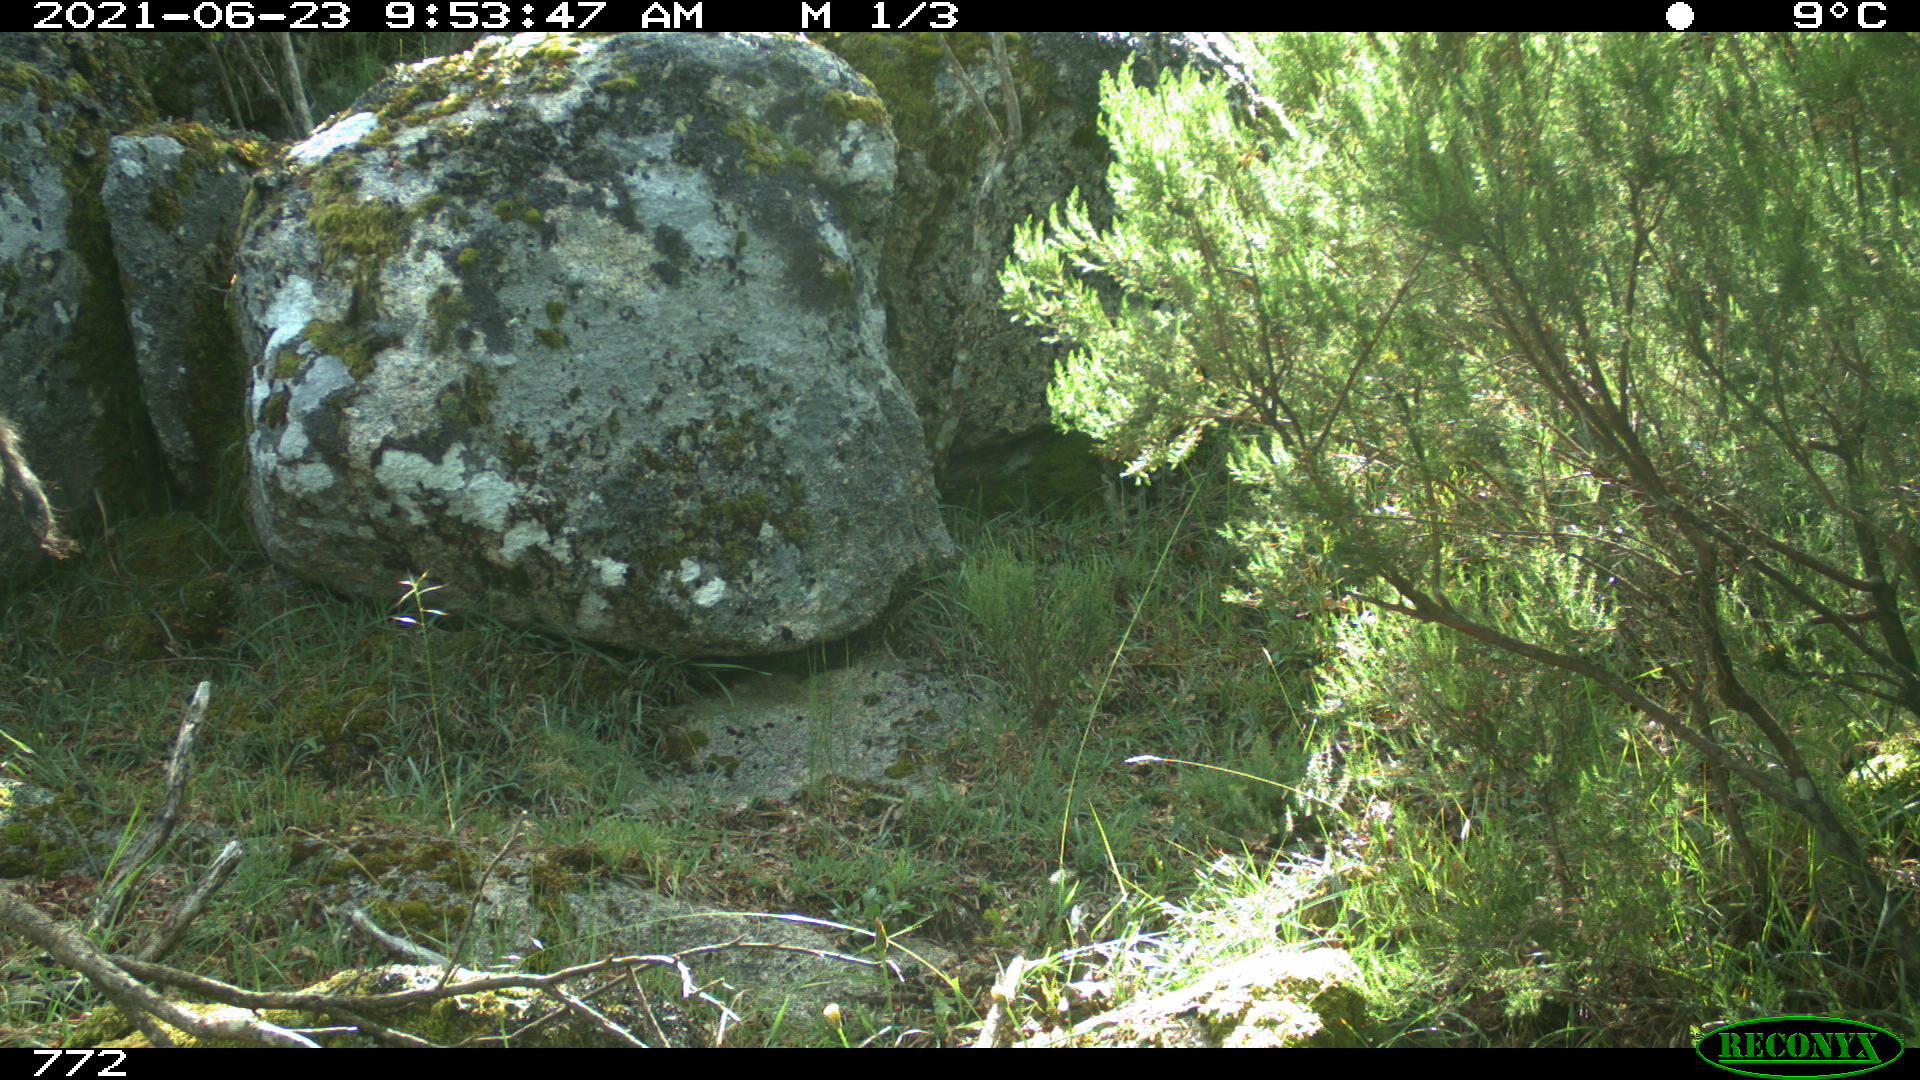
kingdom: Animalia
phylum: Chordata
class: Mammalia
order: Artiodactyla
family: Suidae
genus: Sus
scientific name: Sus scrofa
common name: Wild boar
